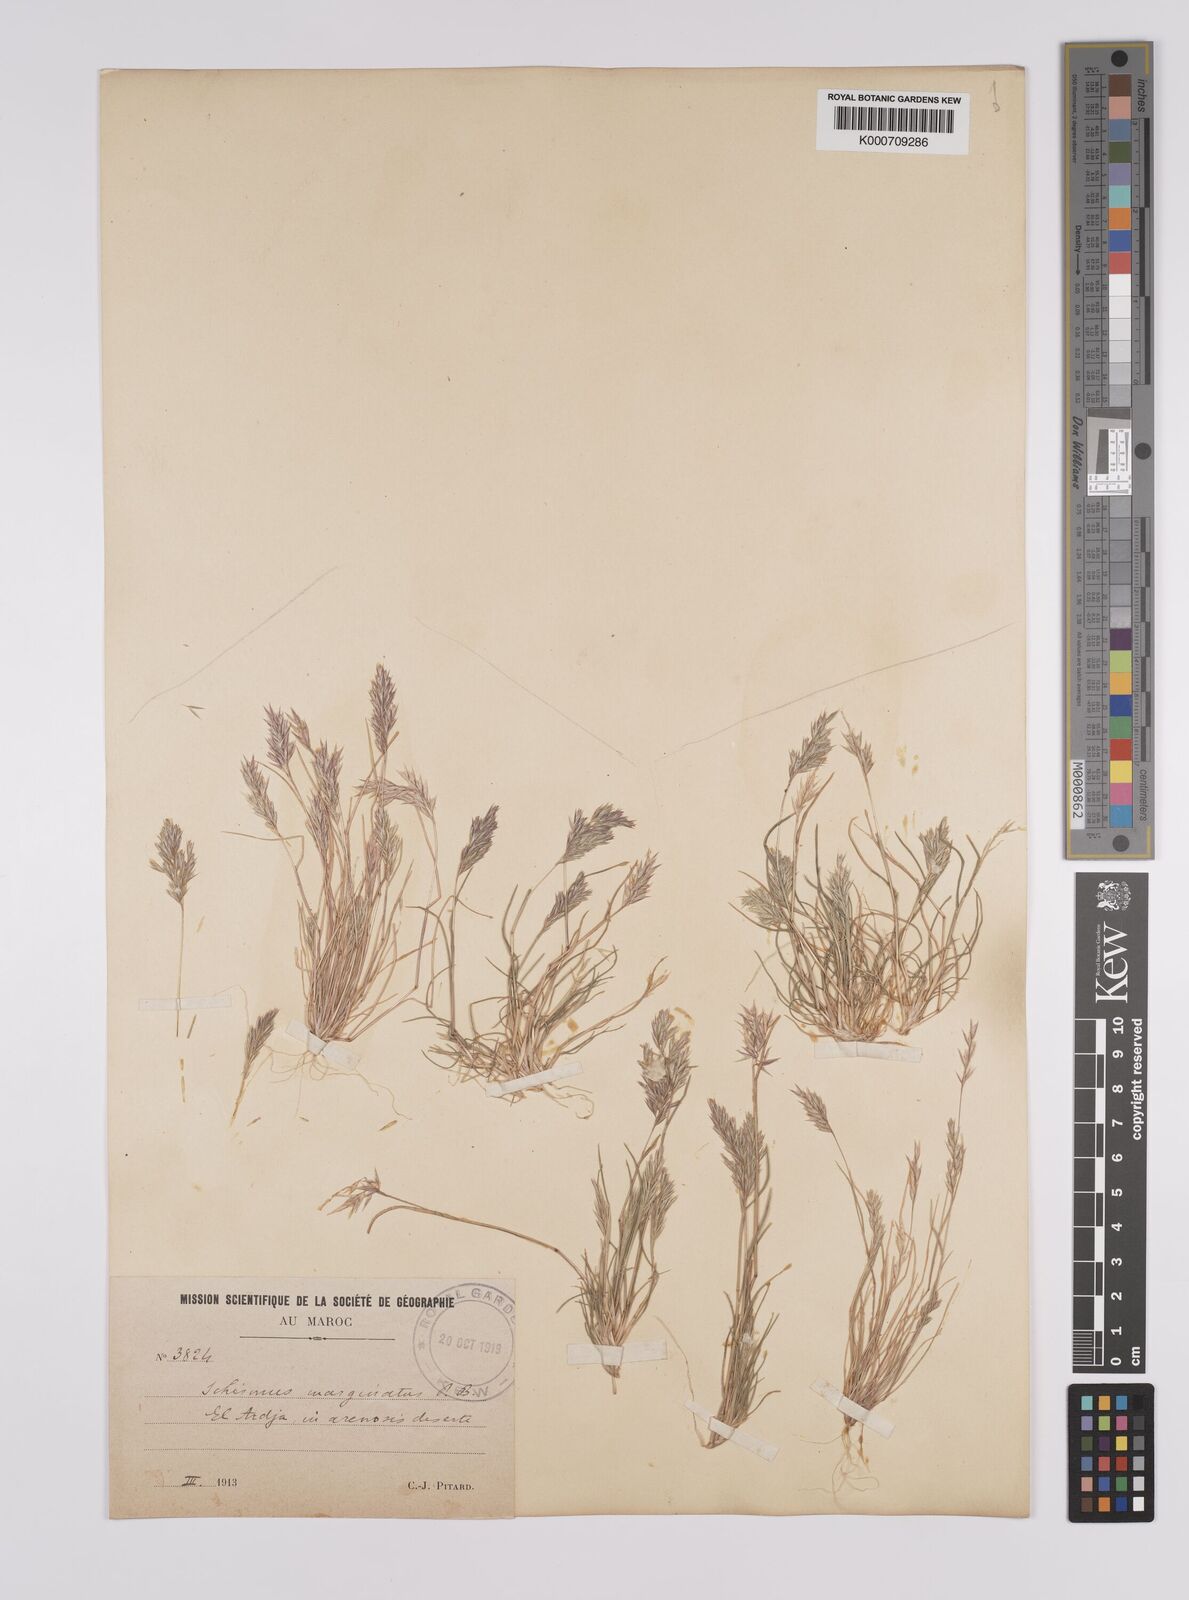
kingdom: Plantae
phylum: Tracheophyta
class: Liliopsida
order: Poales
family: Poaceae
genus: Schismus
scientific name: Schismus barbatus
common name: Kelch-grass
